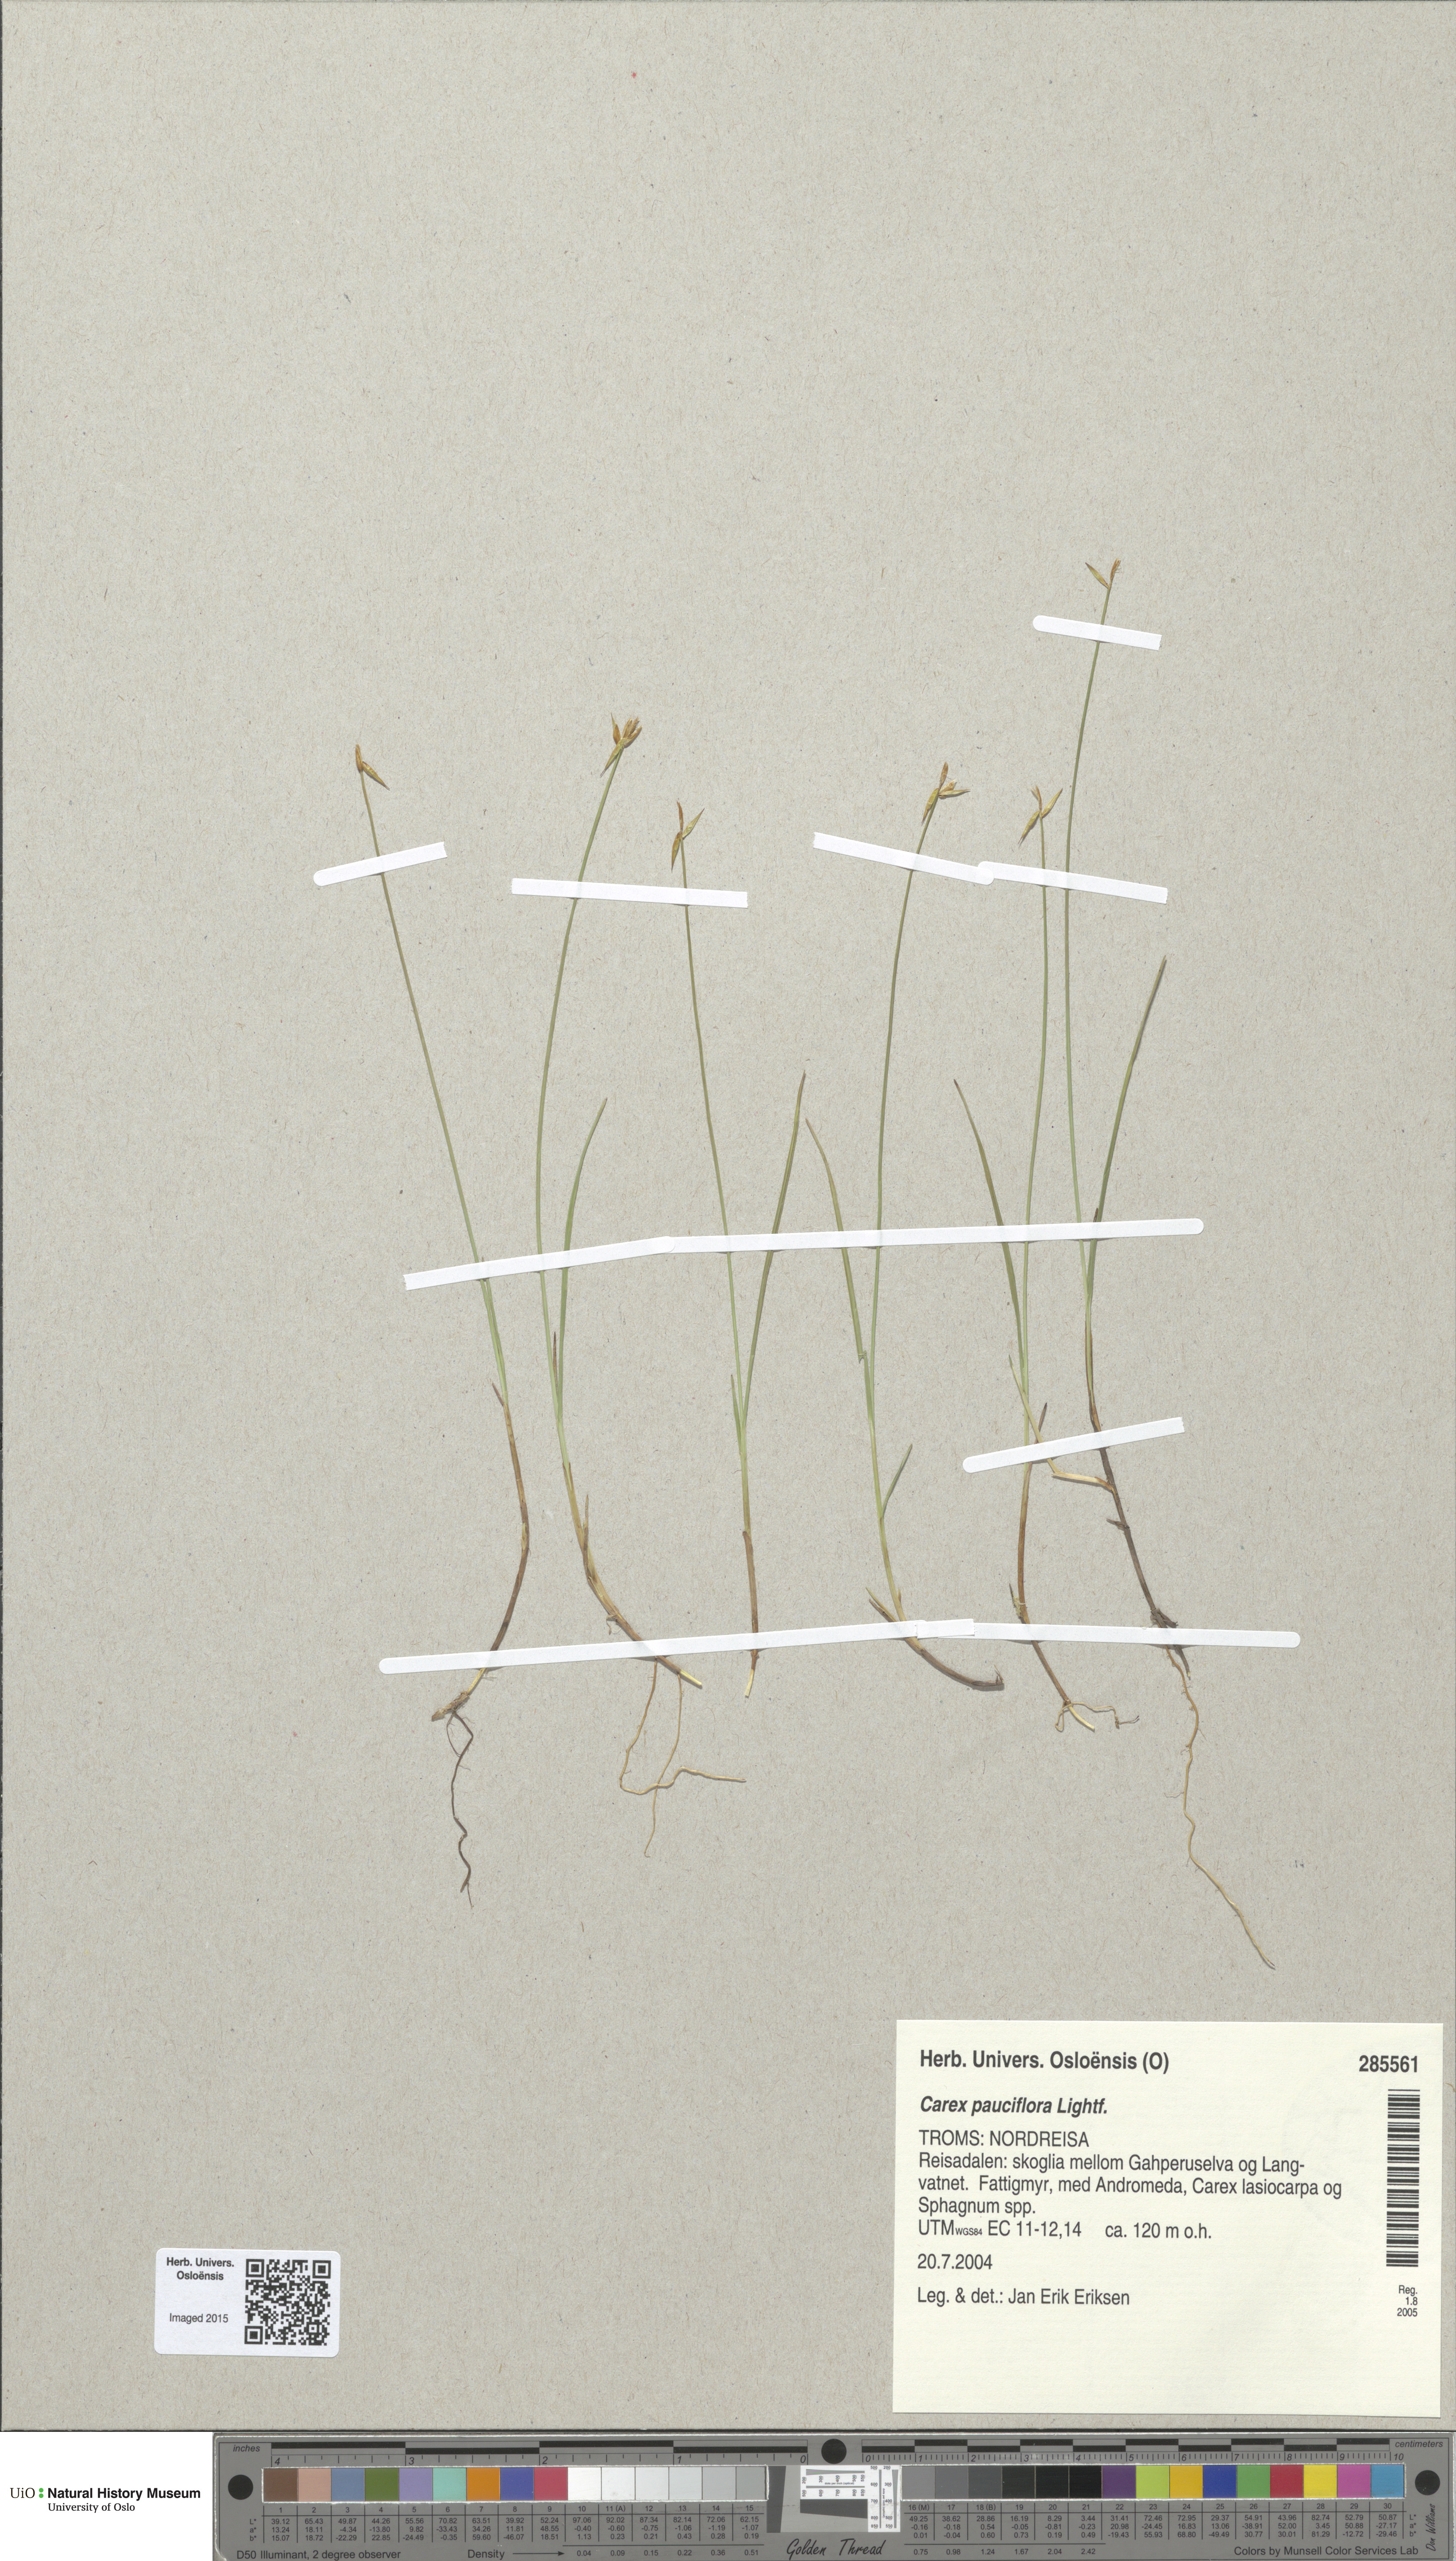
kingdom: Plantae
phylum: Tracheophyta
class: Liliopsida
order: Poales
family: Cyperaceae
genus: Carex
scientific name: Carex pauciflora
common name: Few-flowered sedge
